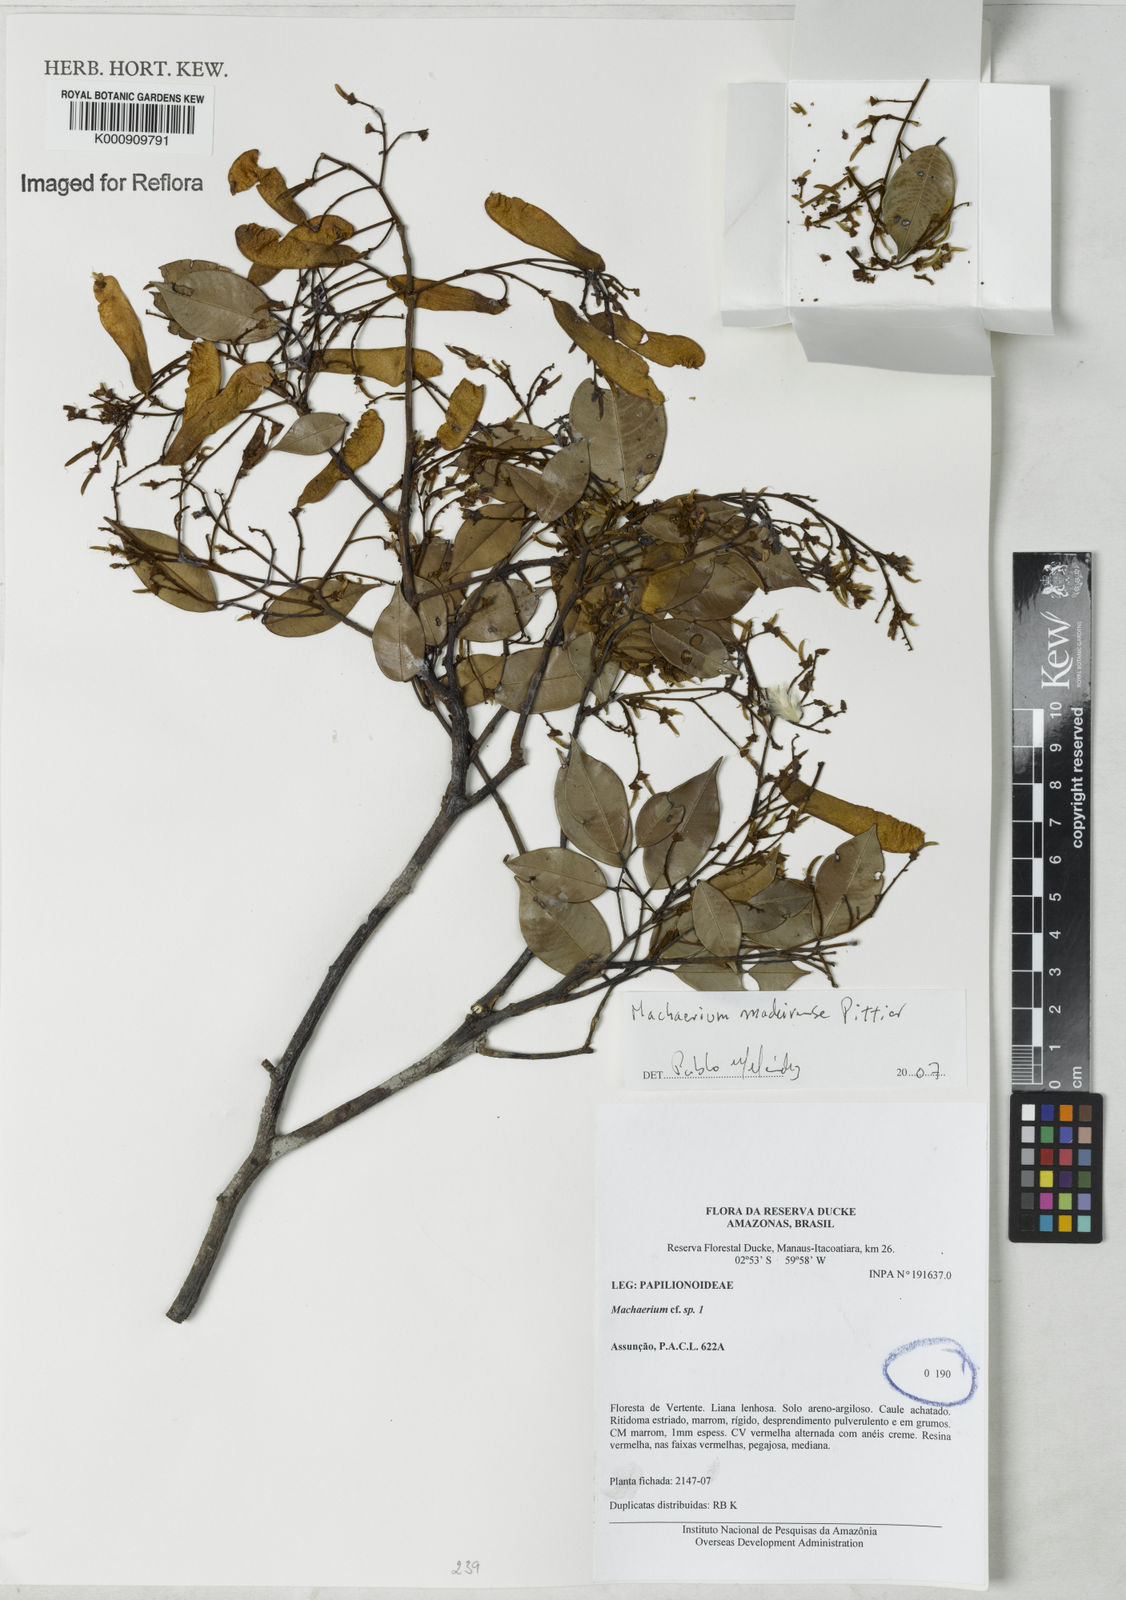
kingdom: Plantae
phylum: Tracheophyta
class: Magnoliopsida
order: Fabales
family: Fabaceae
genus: Machaerium
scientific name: Machaerium madeirense
